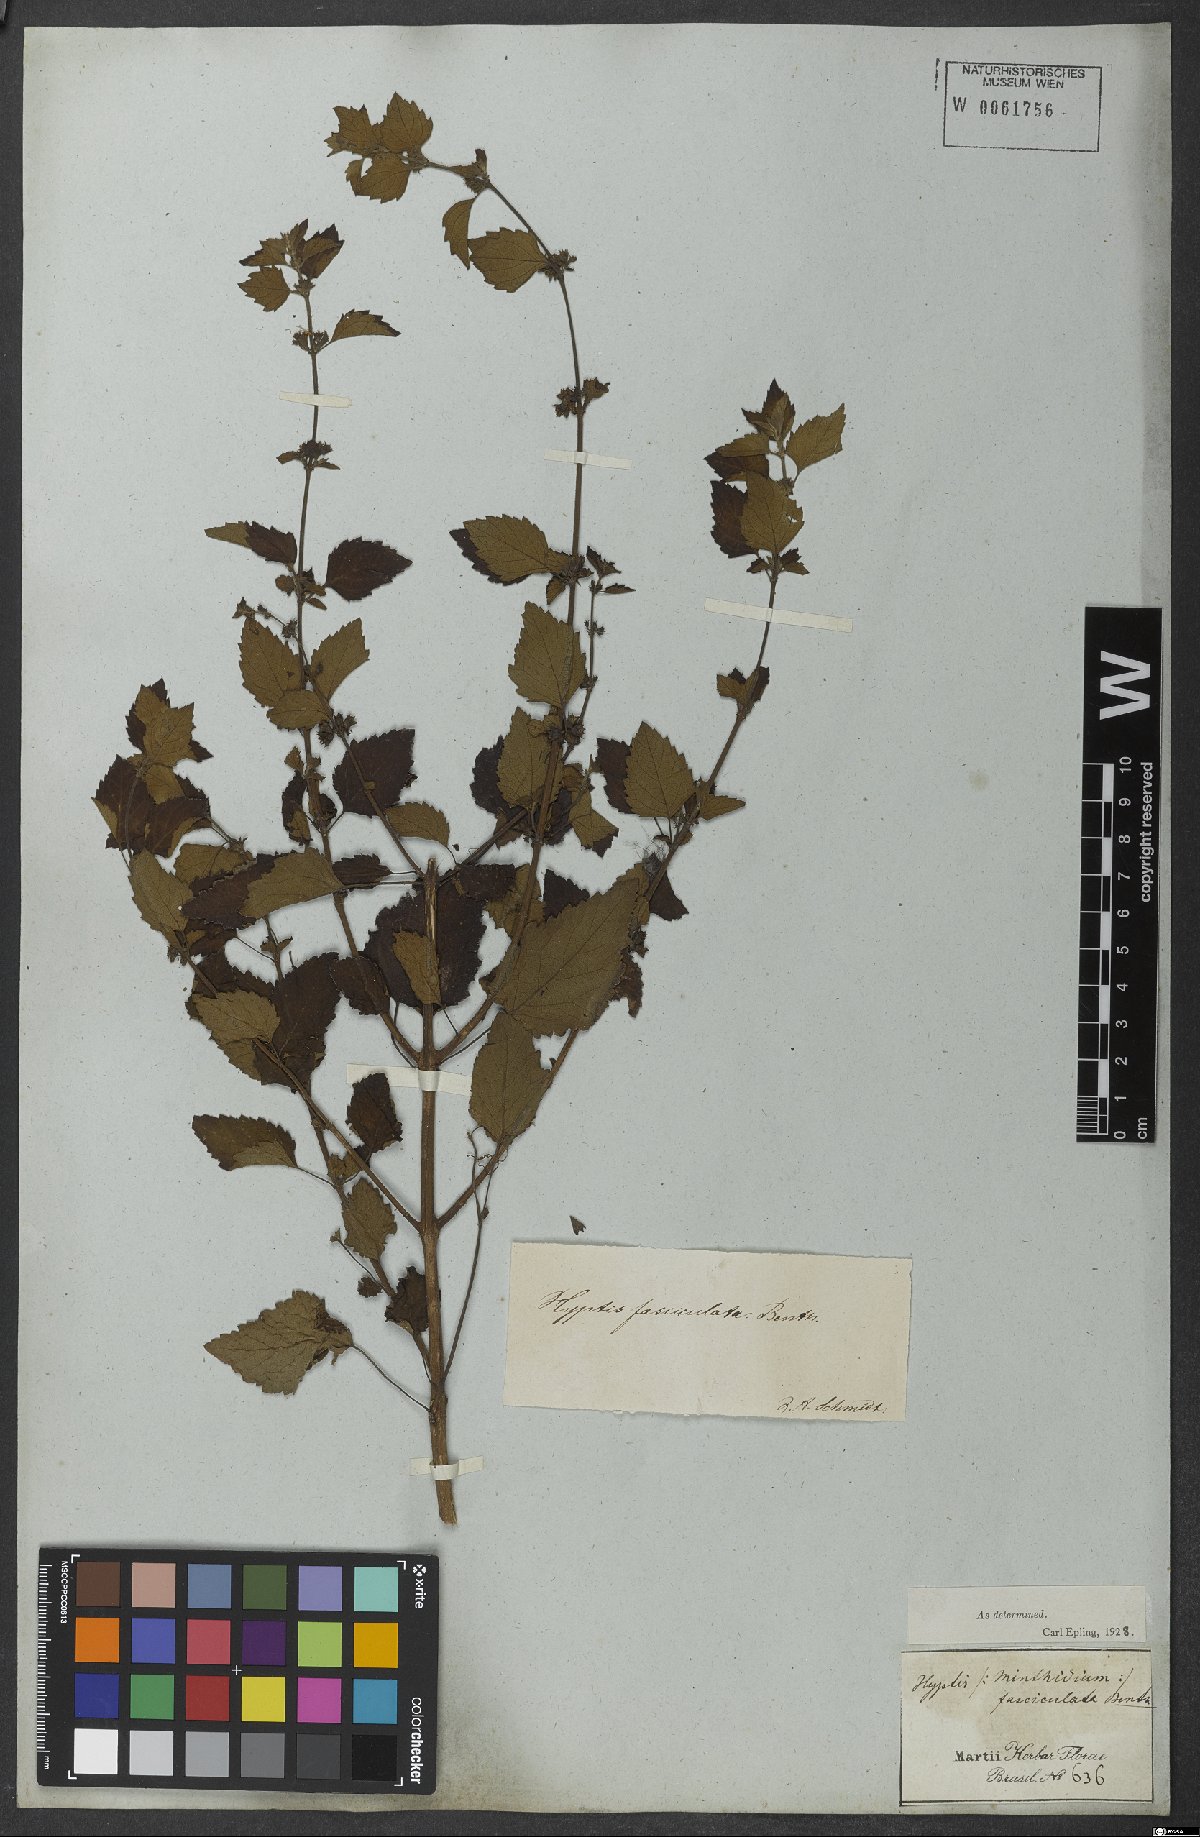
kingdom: Plantae
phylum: Tracheophyta
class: Magnoliopsida
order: Lamiales
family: Lamiaceae
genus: Condea
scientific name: Condea undulata
